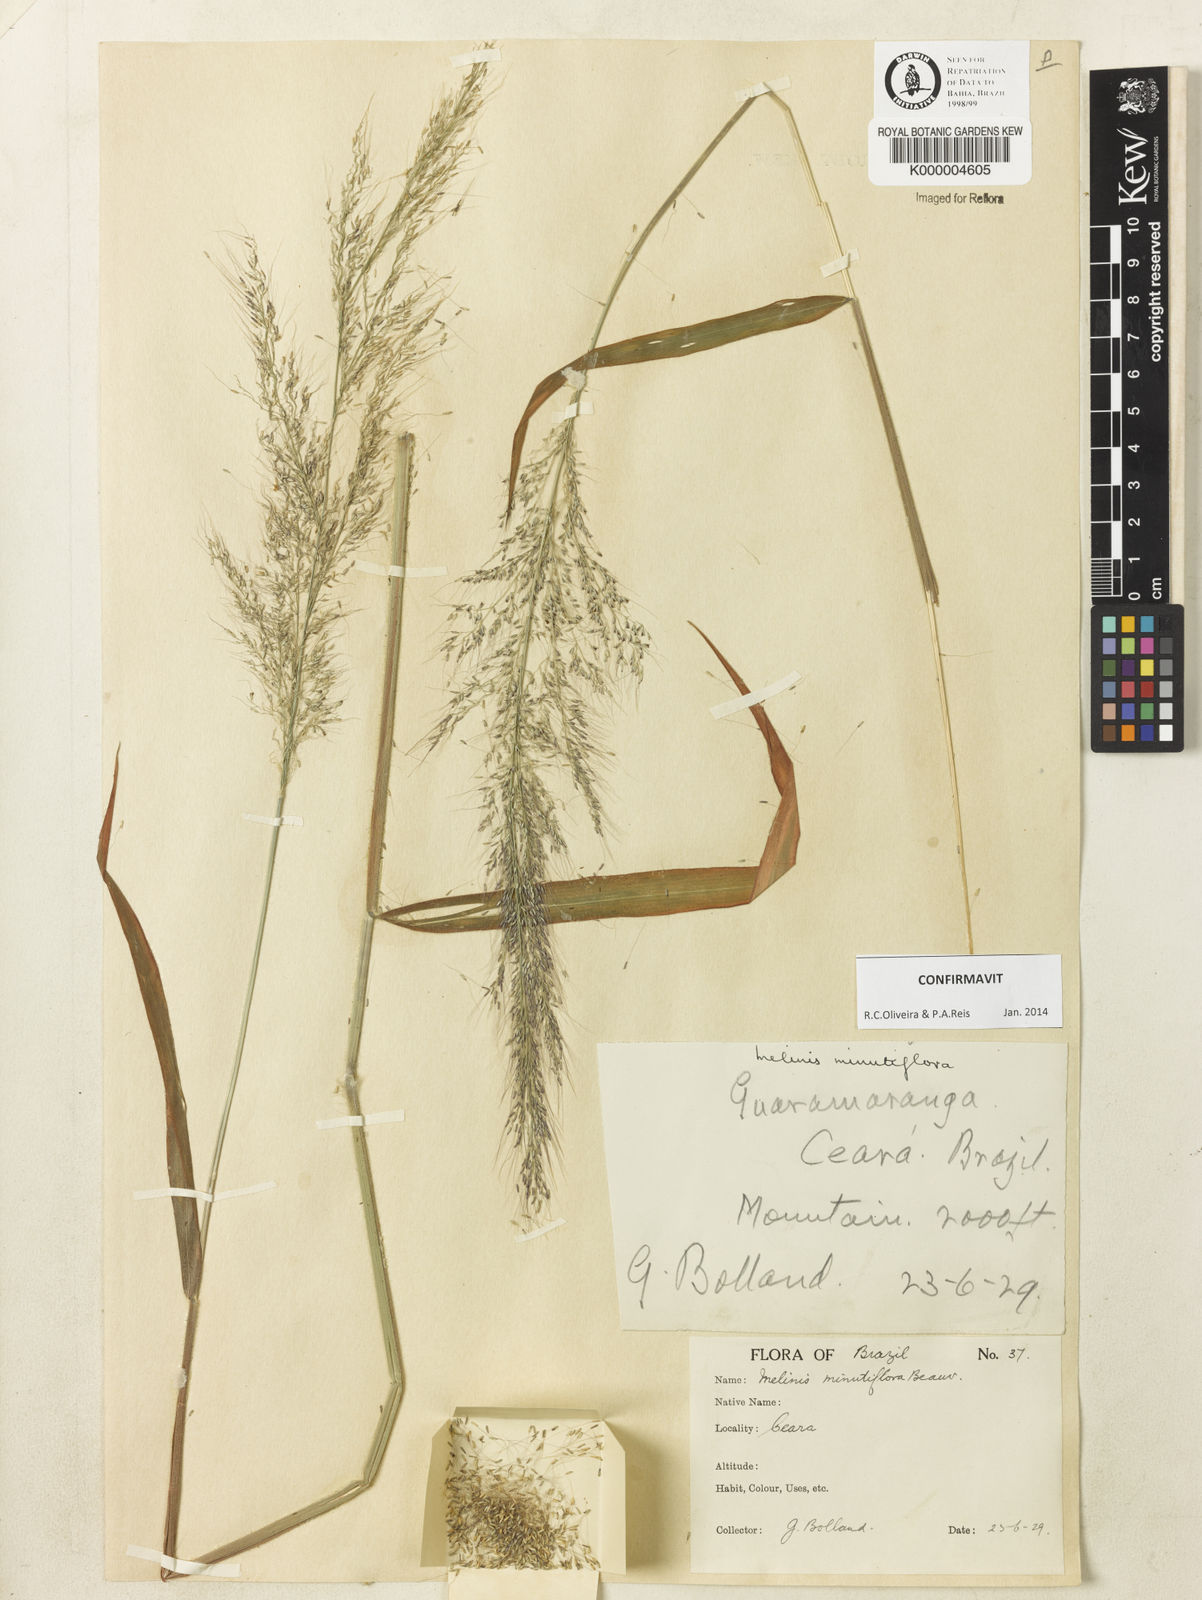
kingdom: Plantae
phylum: Tracheophyta
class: Liliopsida
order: Poales
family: Poaceae
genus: Melinis
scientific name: Melinis minutiflora
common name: Molassesgrass
